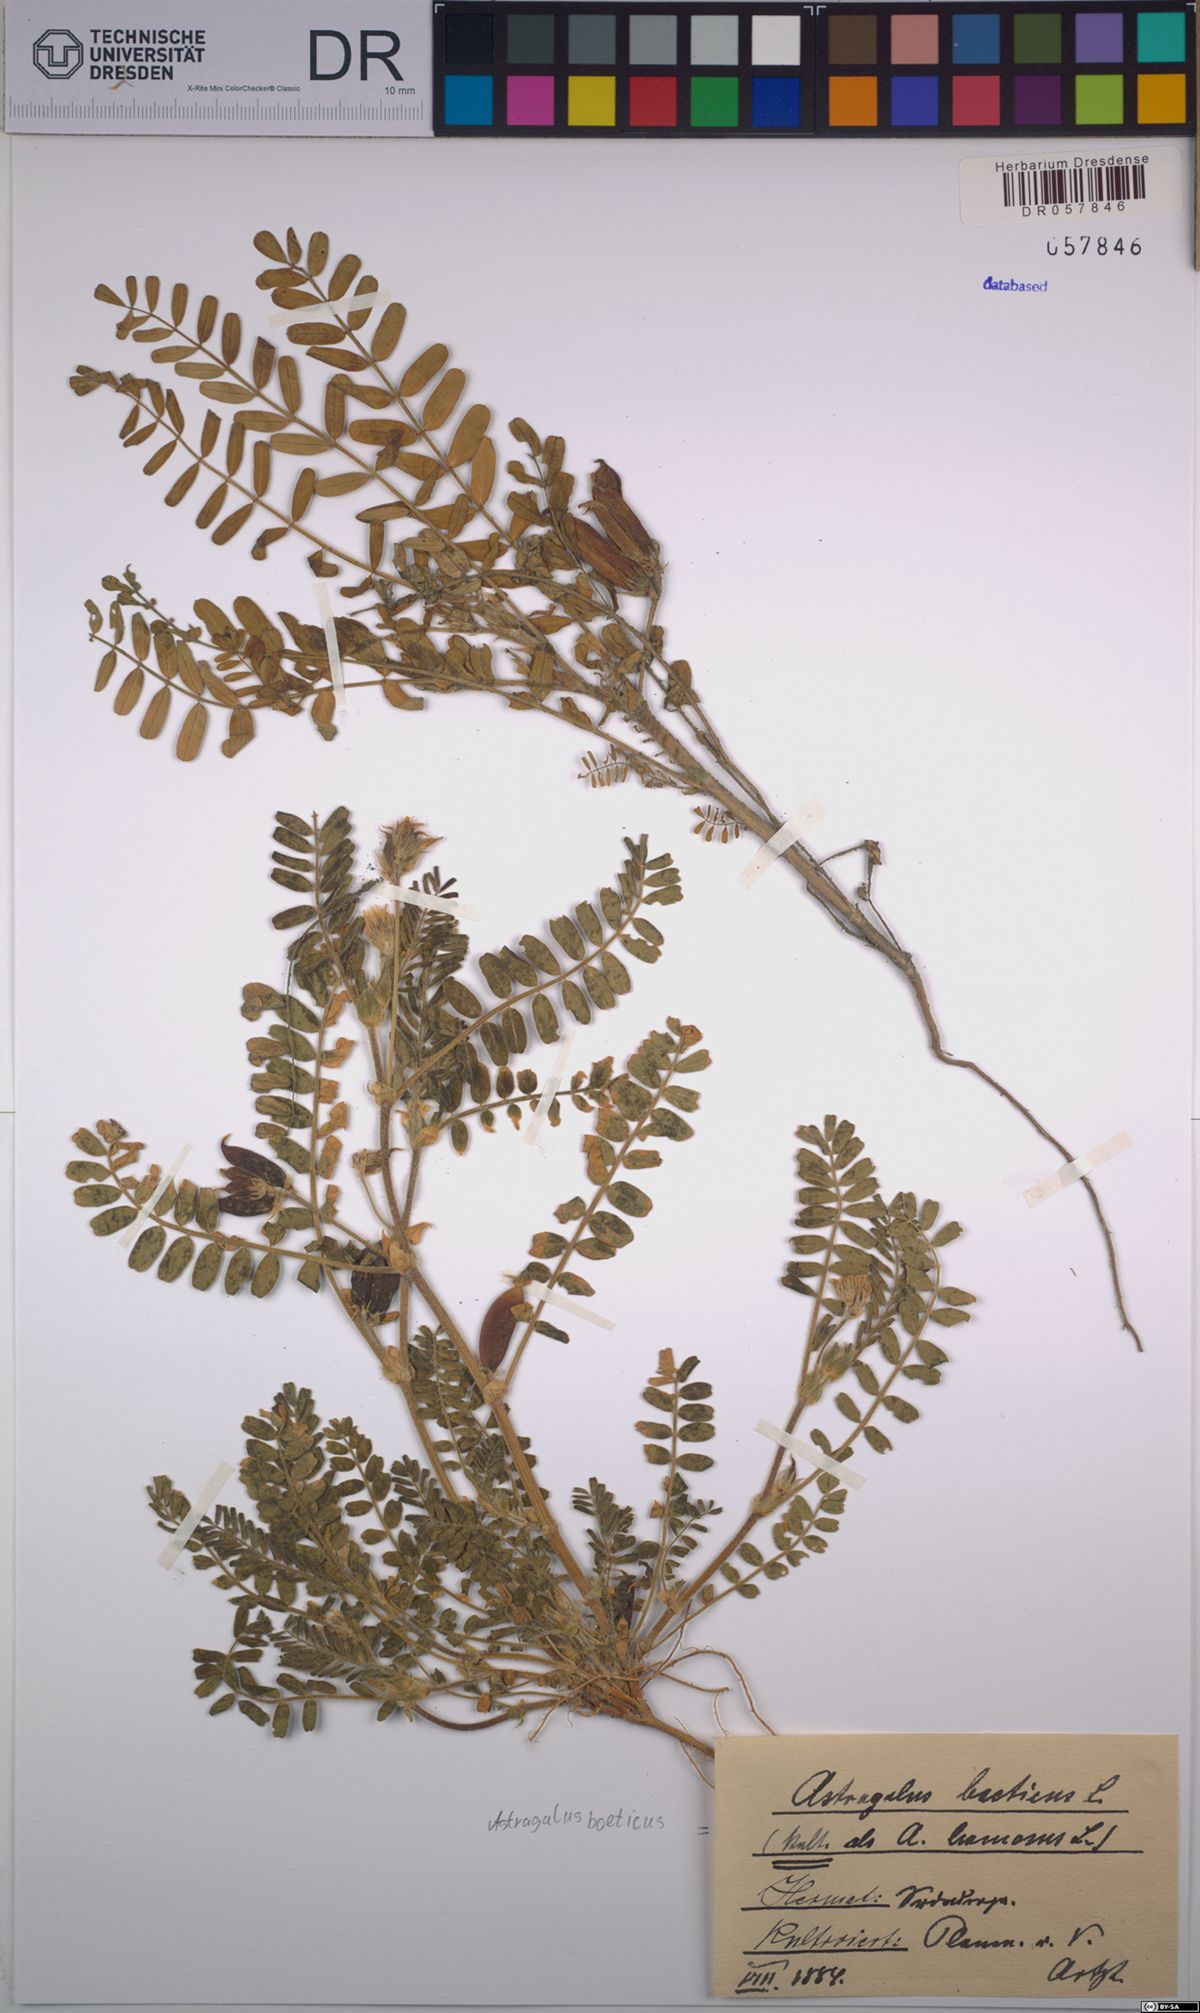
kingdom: Plantae
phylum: Tracheophyta
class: Magnoliopsida
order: Fabales
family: Fabaceae
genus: Astragalus
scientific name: Astragalus boeticus
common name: Milk-vetch
